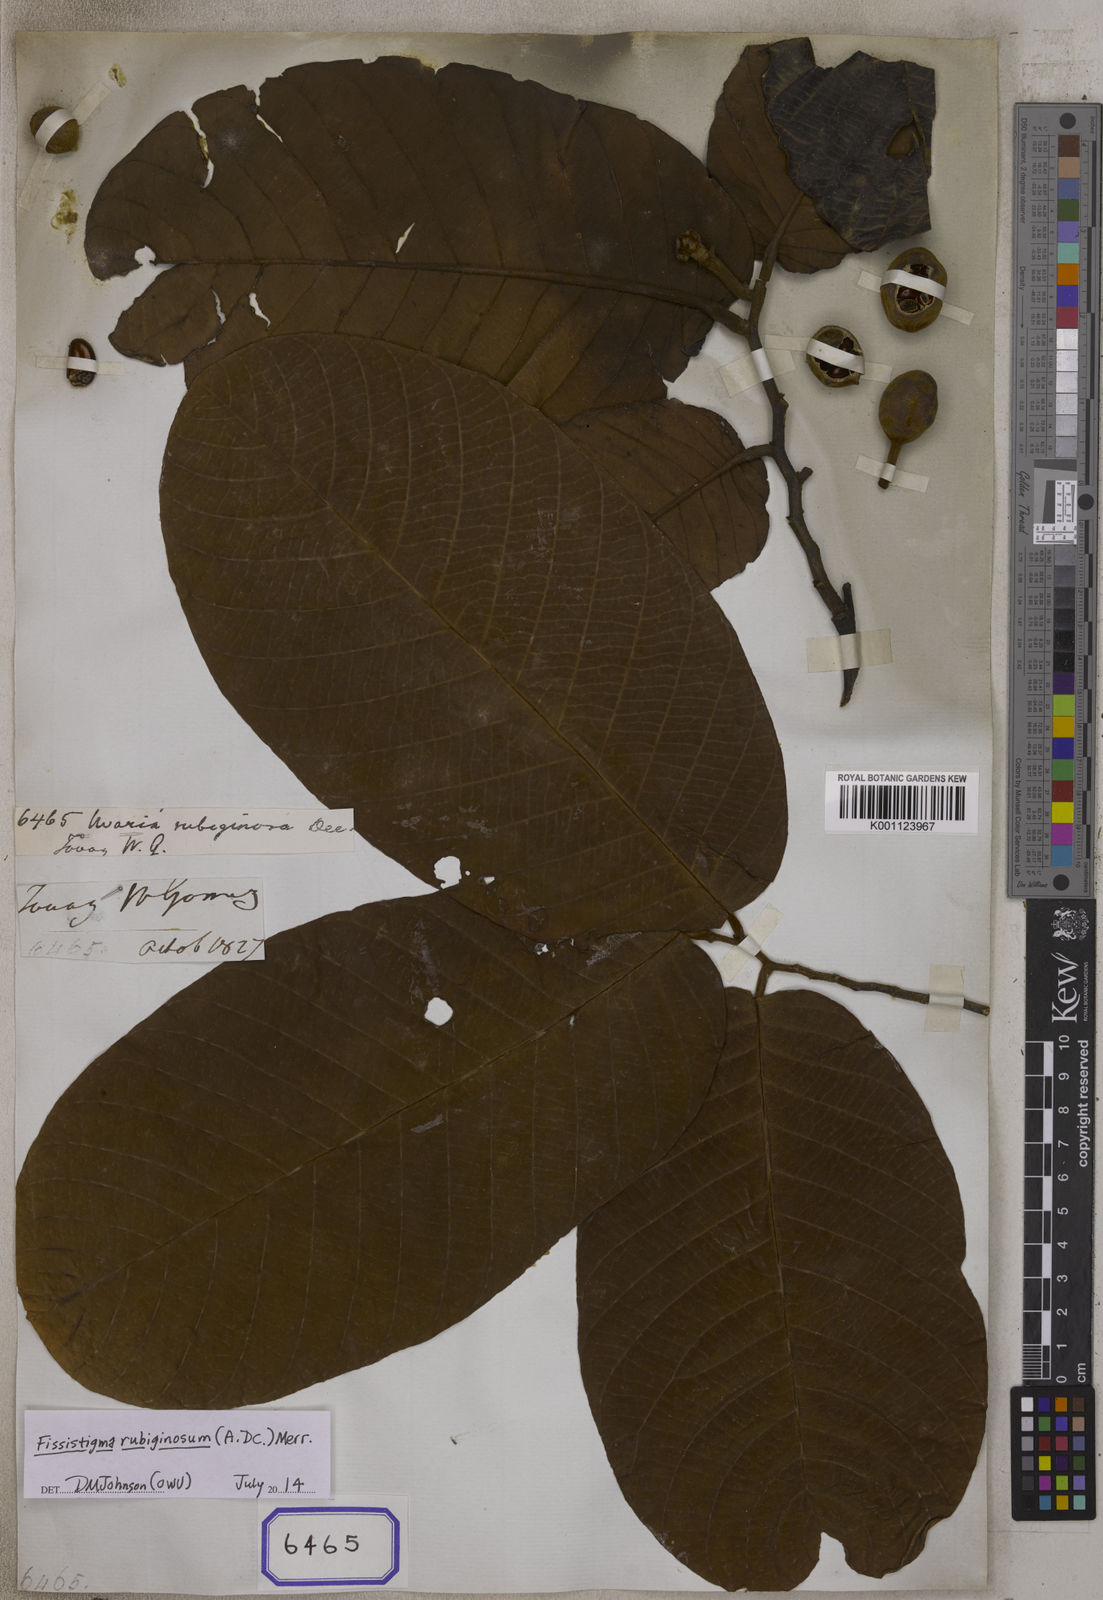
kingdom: Plantae
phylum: Tracheophyta
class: Magnoliopsida
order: Magnoliales
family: Annonaceae
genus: Fissistigma
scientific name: Fissistigma rubiginosum
